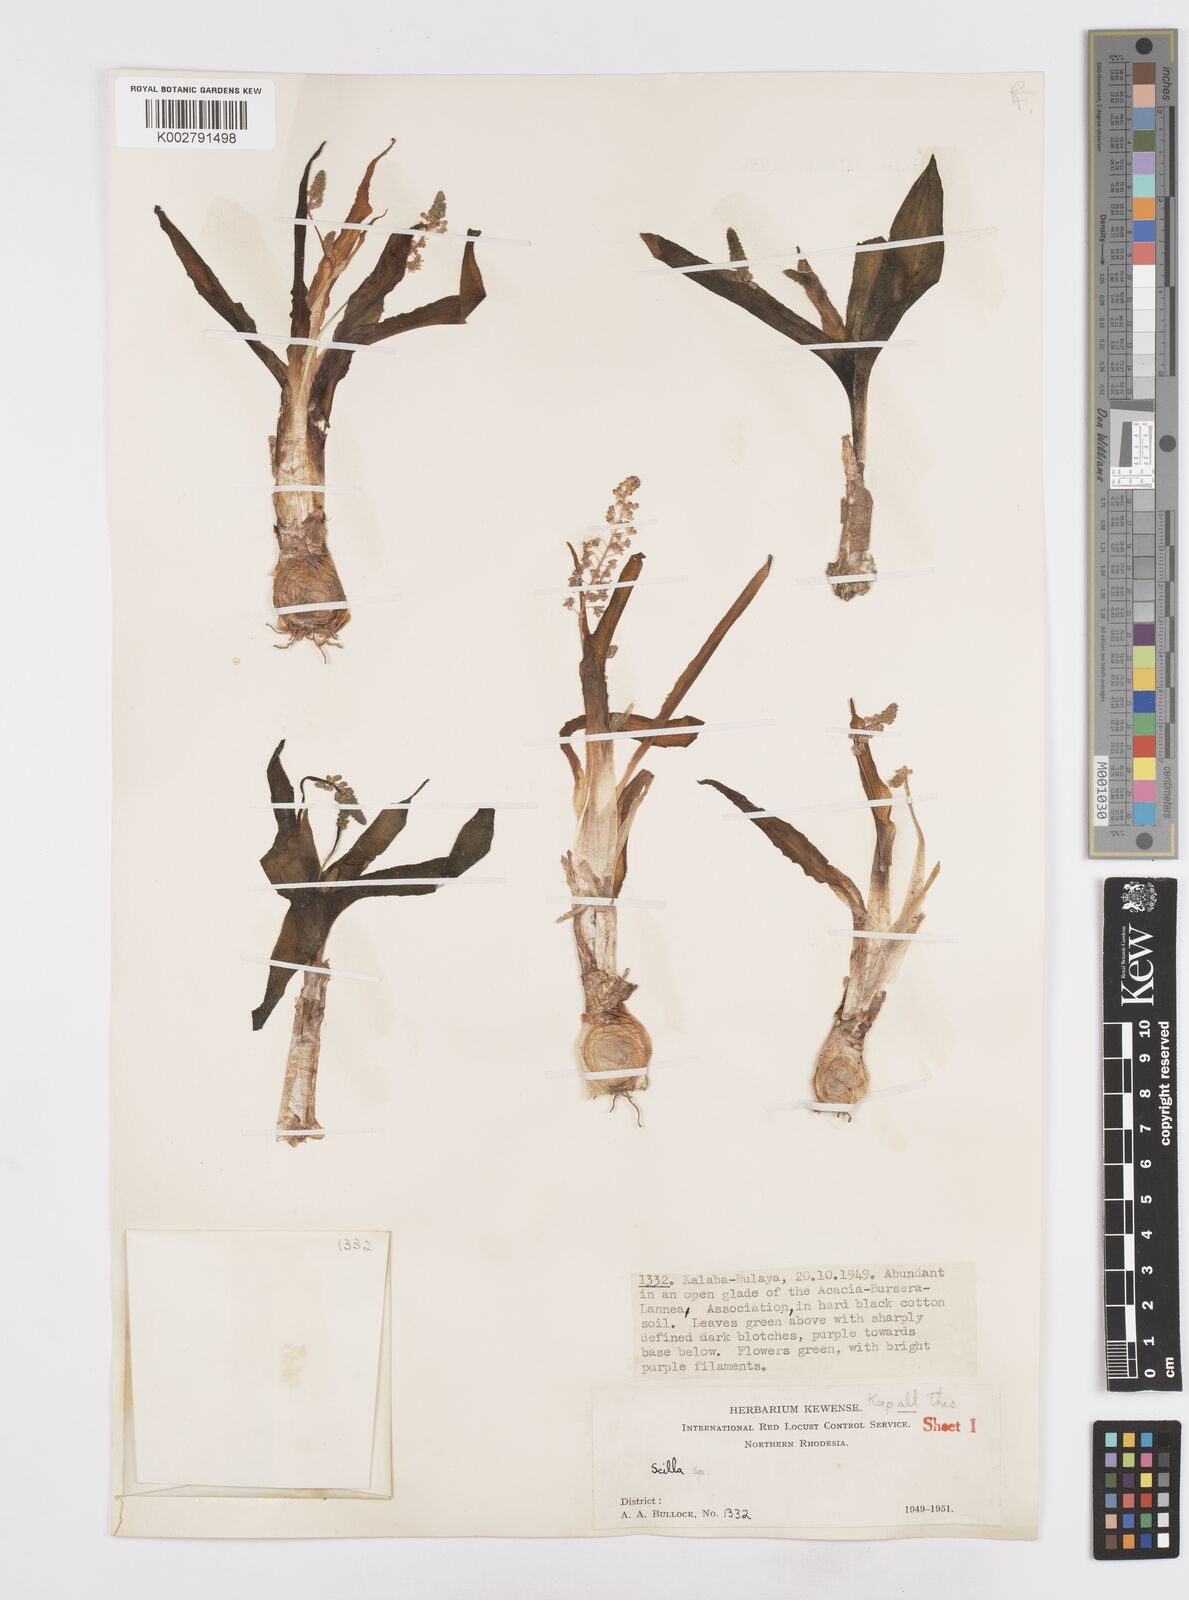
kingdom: Plantae
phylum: Tracheophyta
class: Liliopsida
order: Asparagales
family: Asparagaceae
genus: Scilla
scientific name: Scilla
